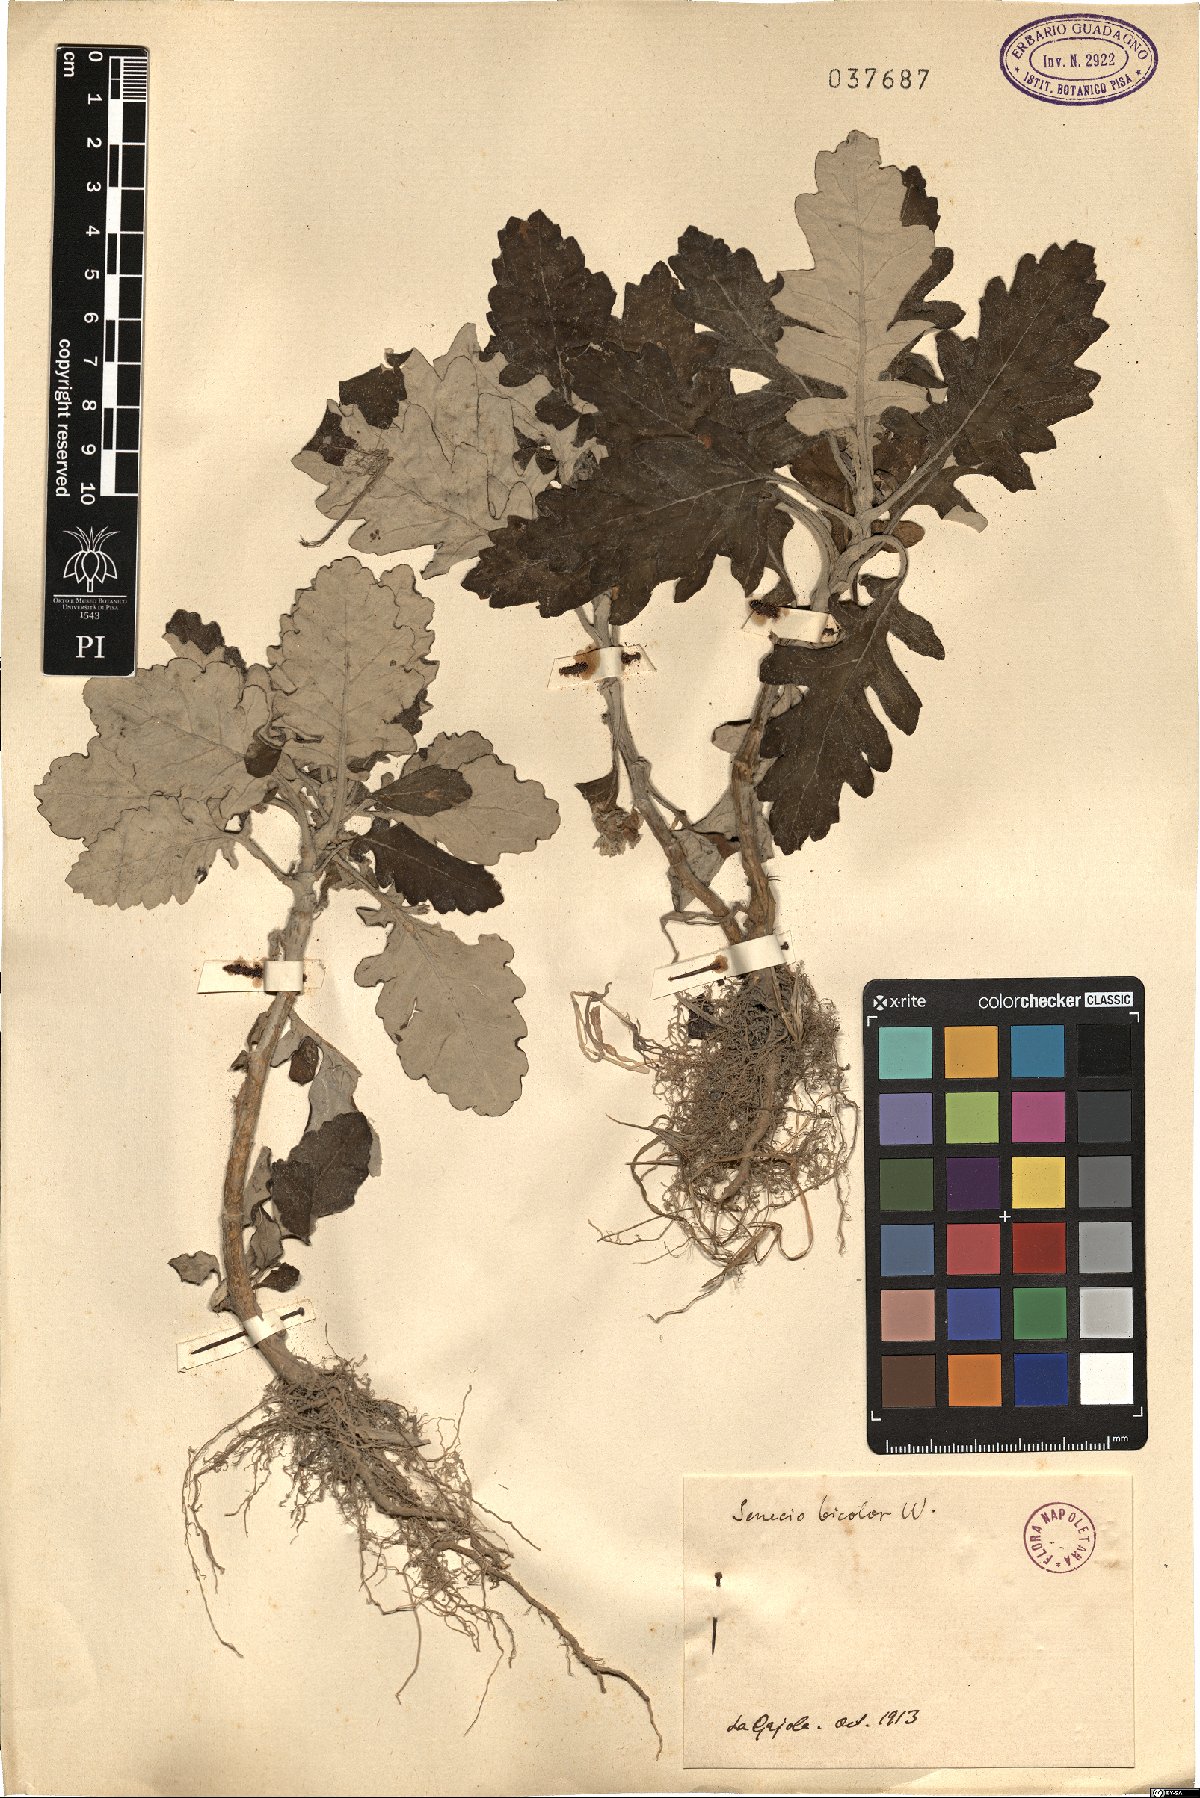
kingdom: Plantae
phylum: Tracheophyta
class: Magnoliopsida
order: Asterales
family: Asteraceae
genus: Jacobaea
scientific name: Jacobaea maritima
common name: Silver ragwort
